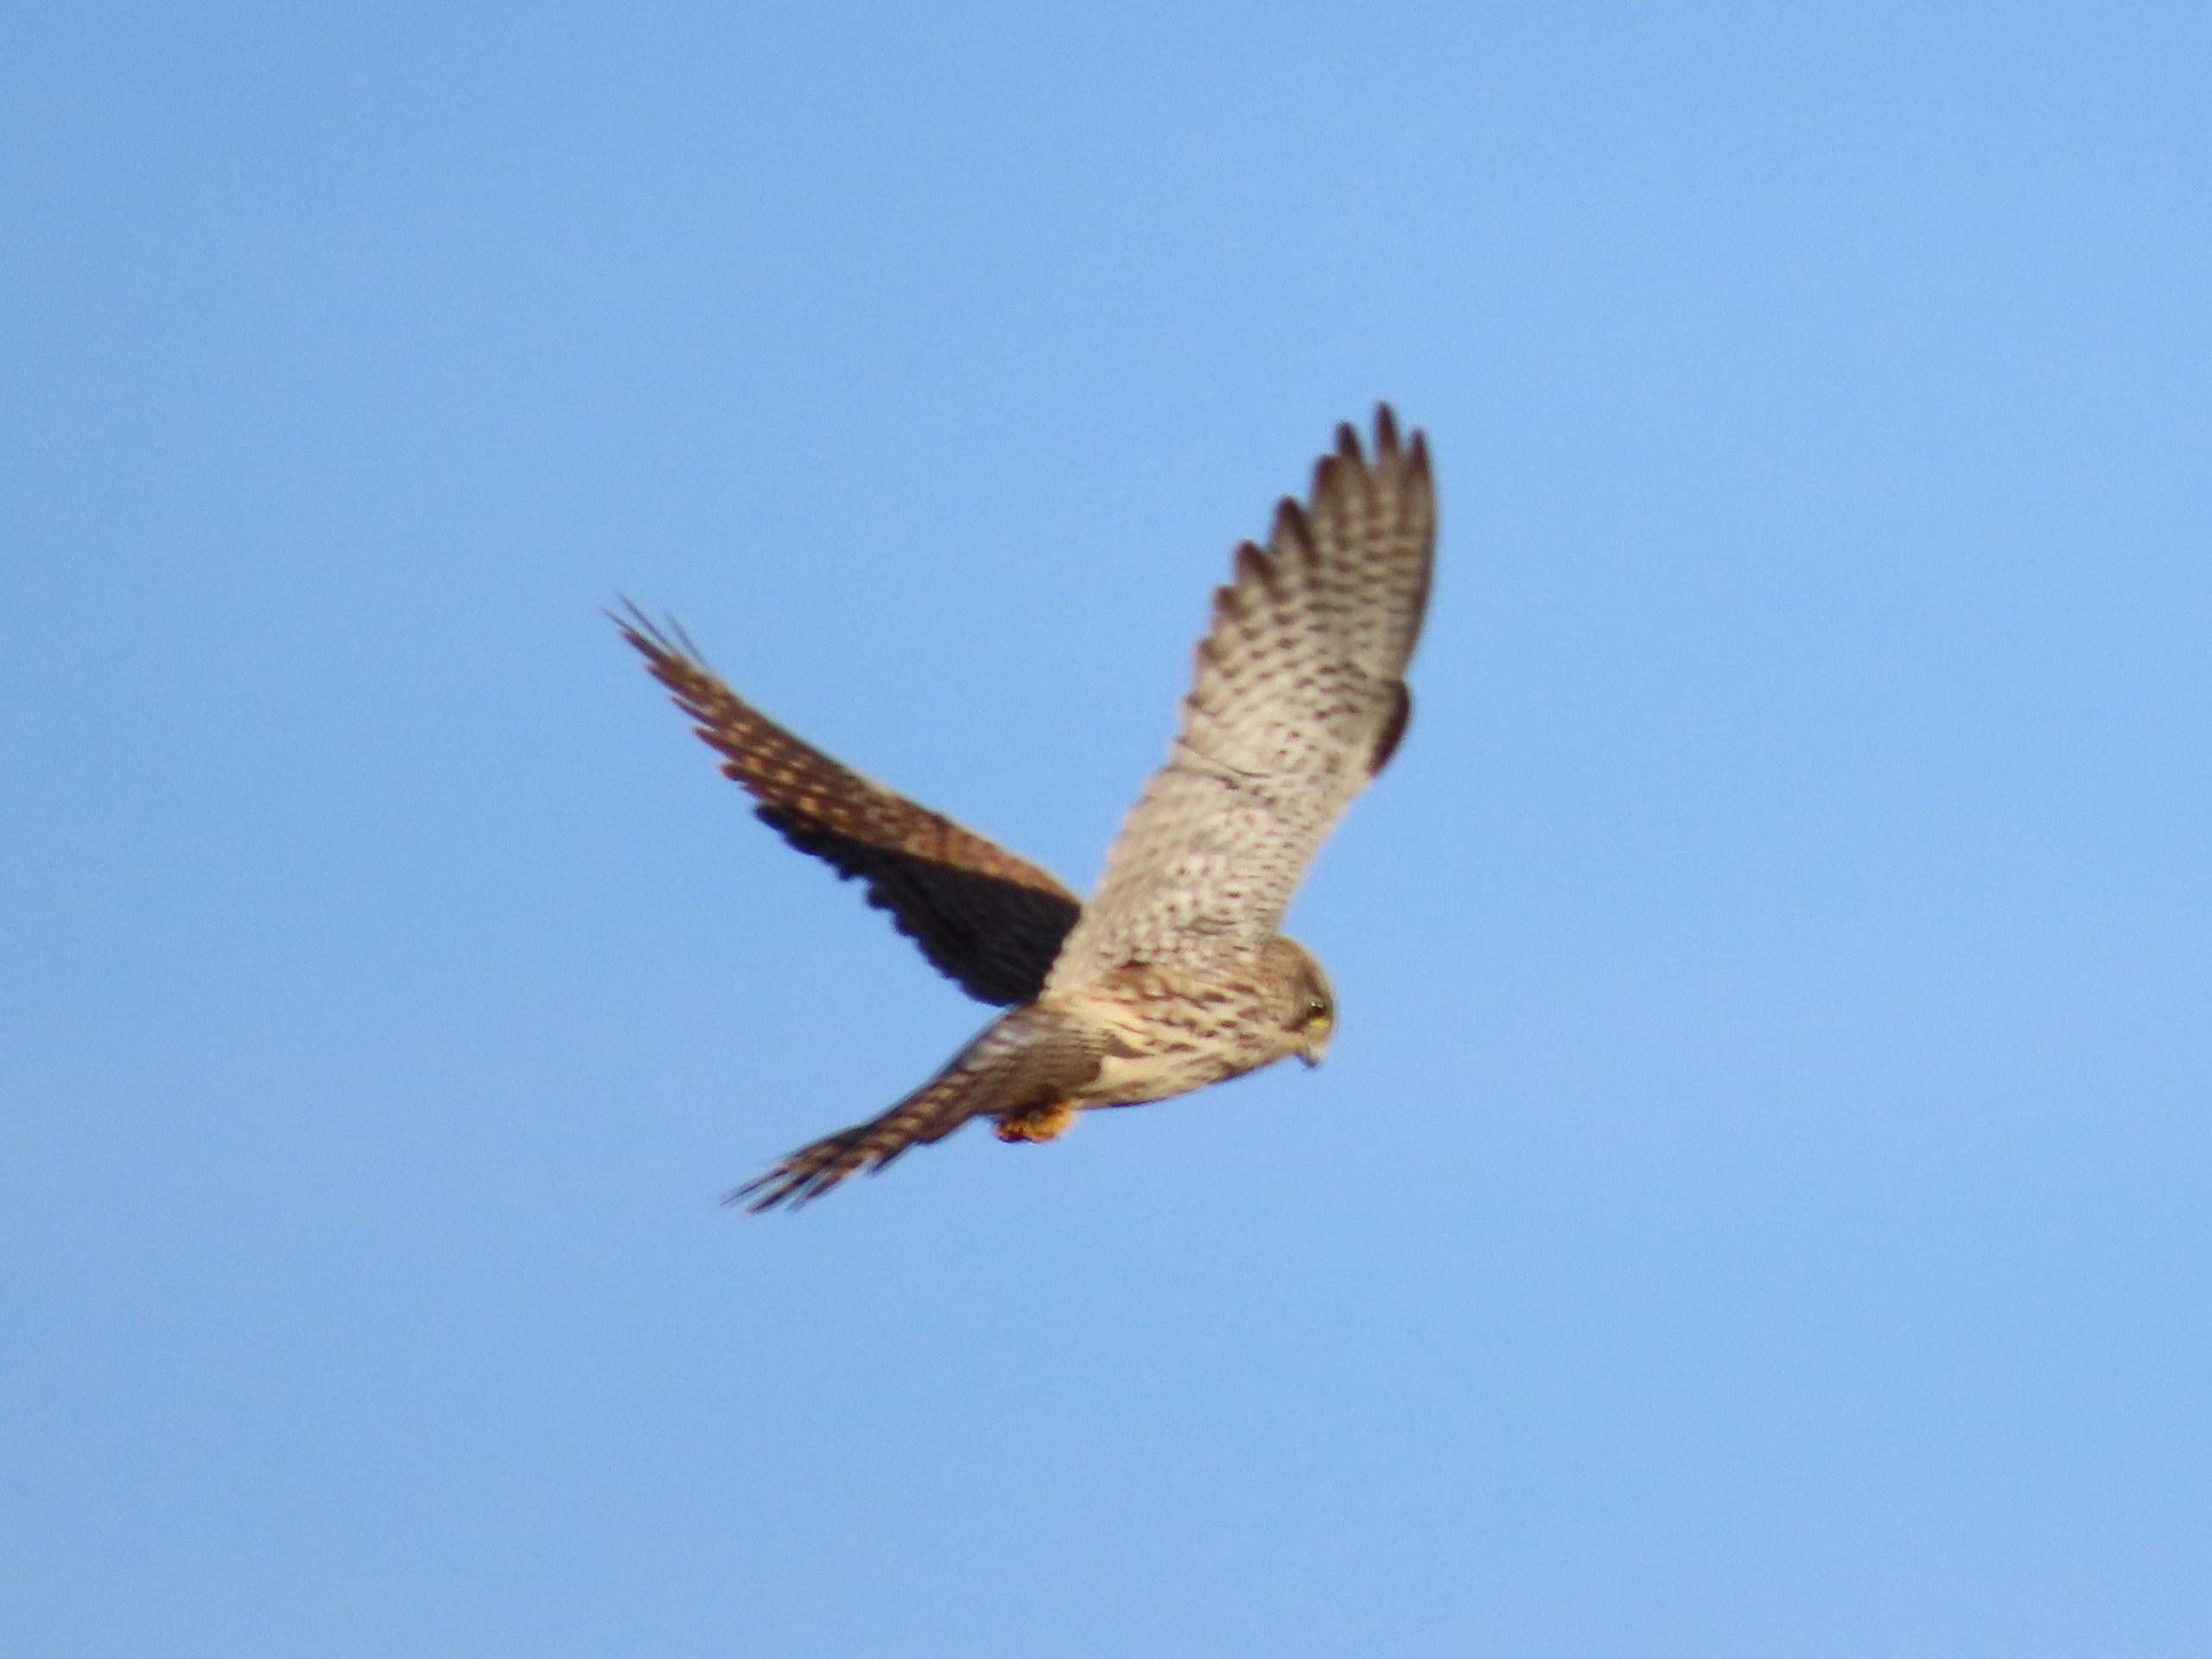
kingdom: Animalia
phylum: Chordata
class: Aves
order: Falconiformes
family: Falconidae
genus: Falco
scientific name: Falco tinnunculus
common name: Tårnfalk
